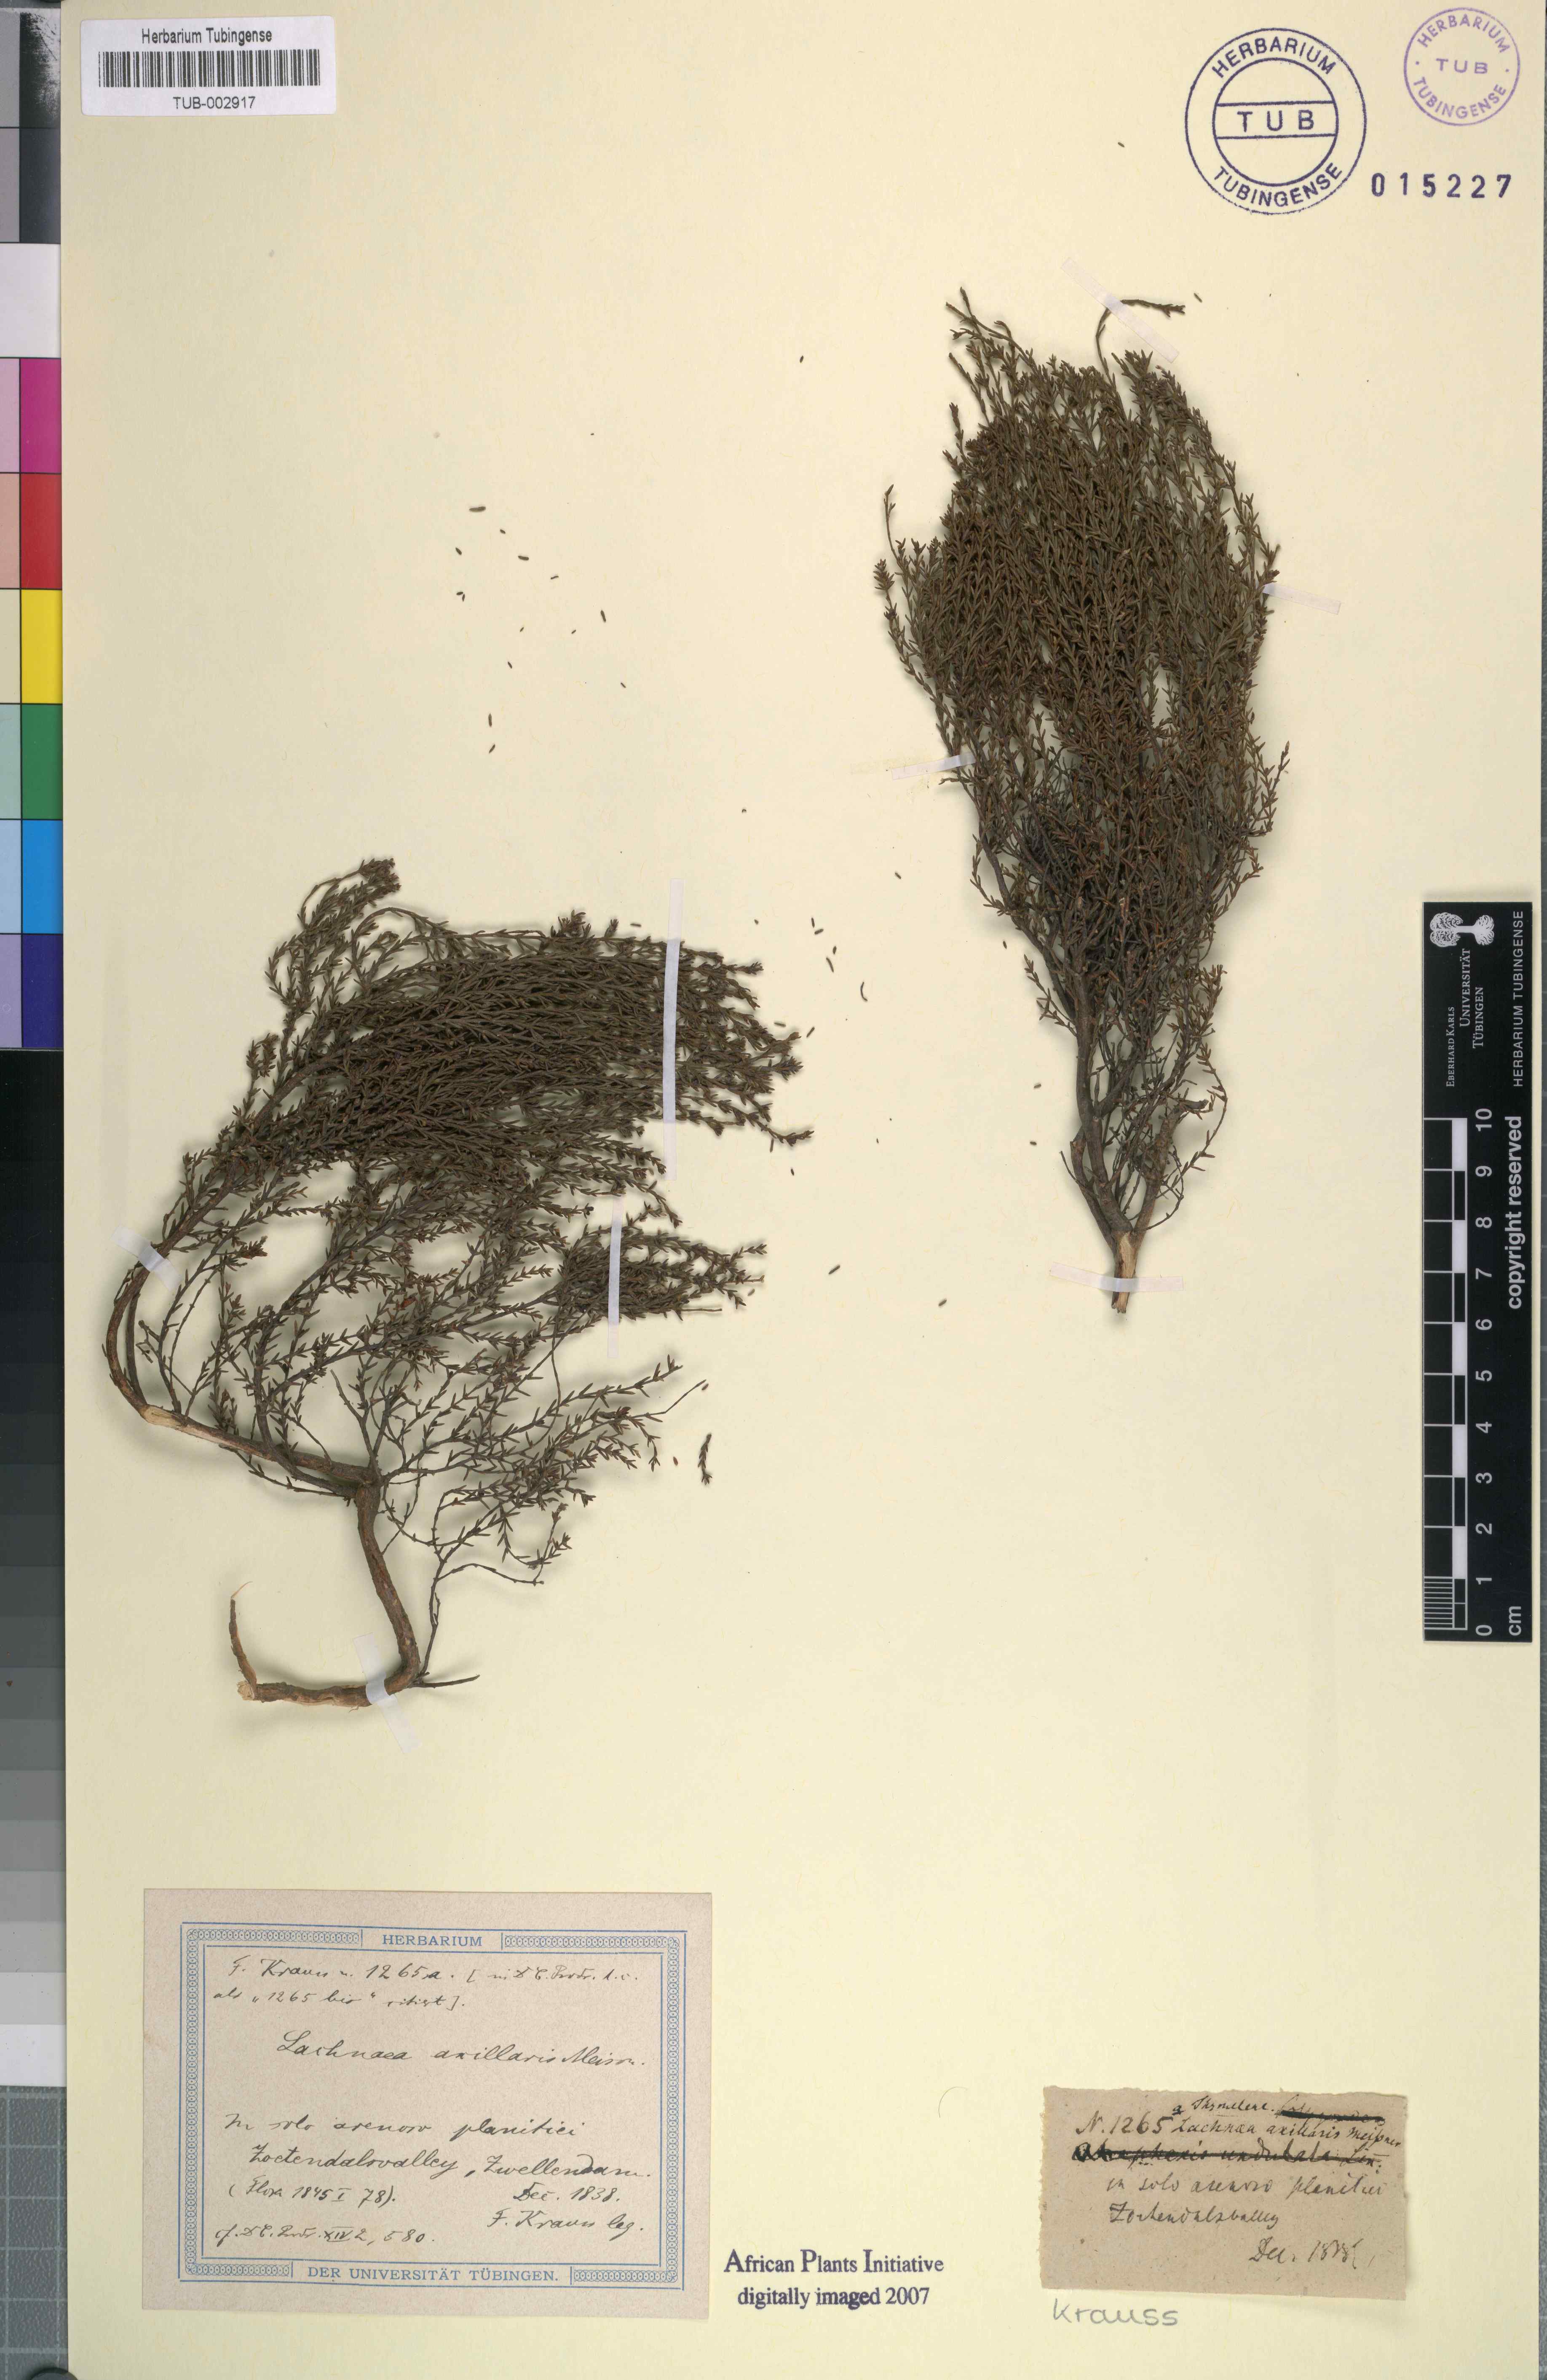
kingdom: Plantae
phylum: Tracheophyta
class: Magnoliopsida
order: Malvales
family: Thymelaeaceae
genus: Lachnaea
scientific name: Lachnaea axillaris
